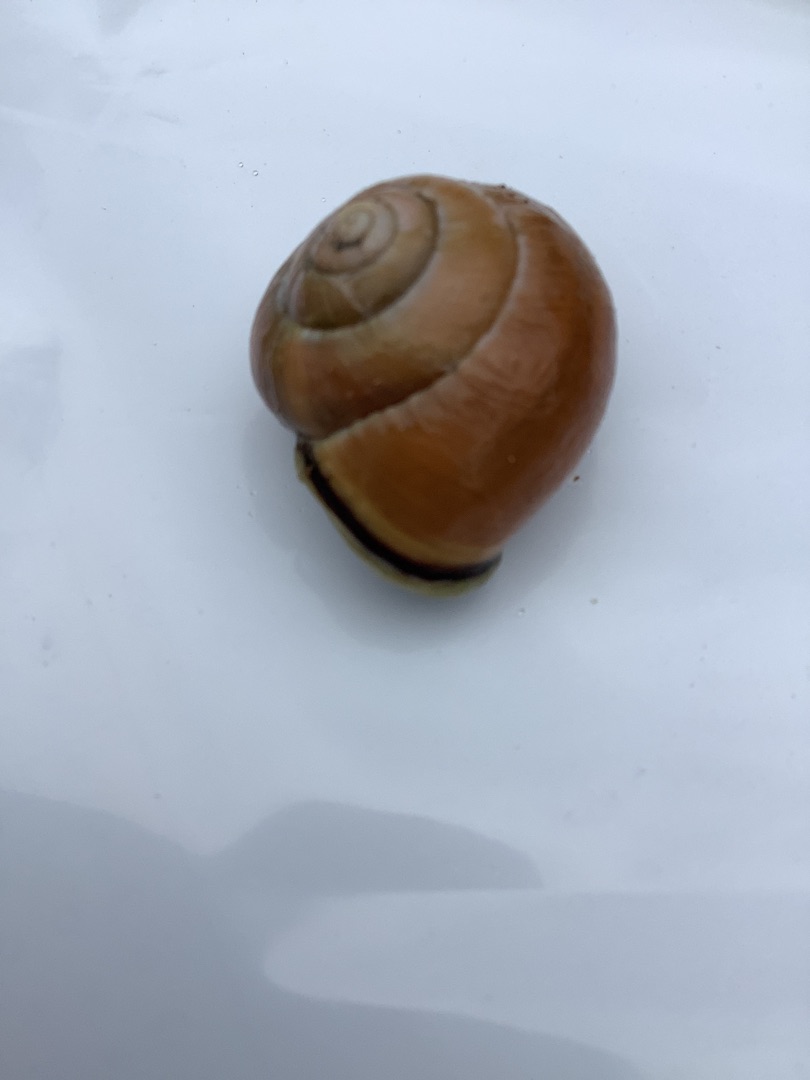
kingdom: Animalia
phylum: Mollusca
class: Gastropoda
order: Stylommatophora
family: Helicidae
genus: Cepaea
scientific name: Cepaea nemoralis
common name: Lundsnegl
